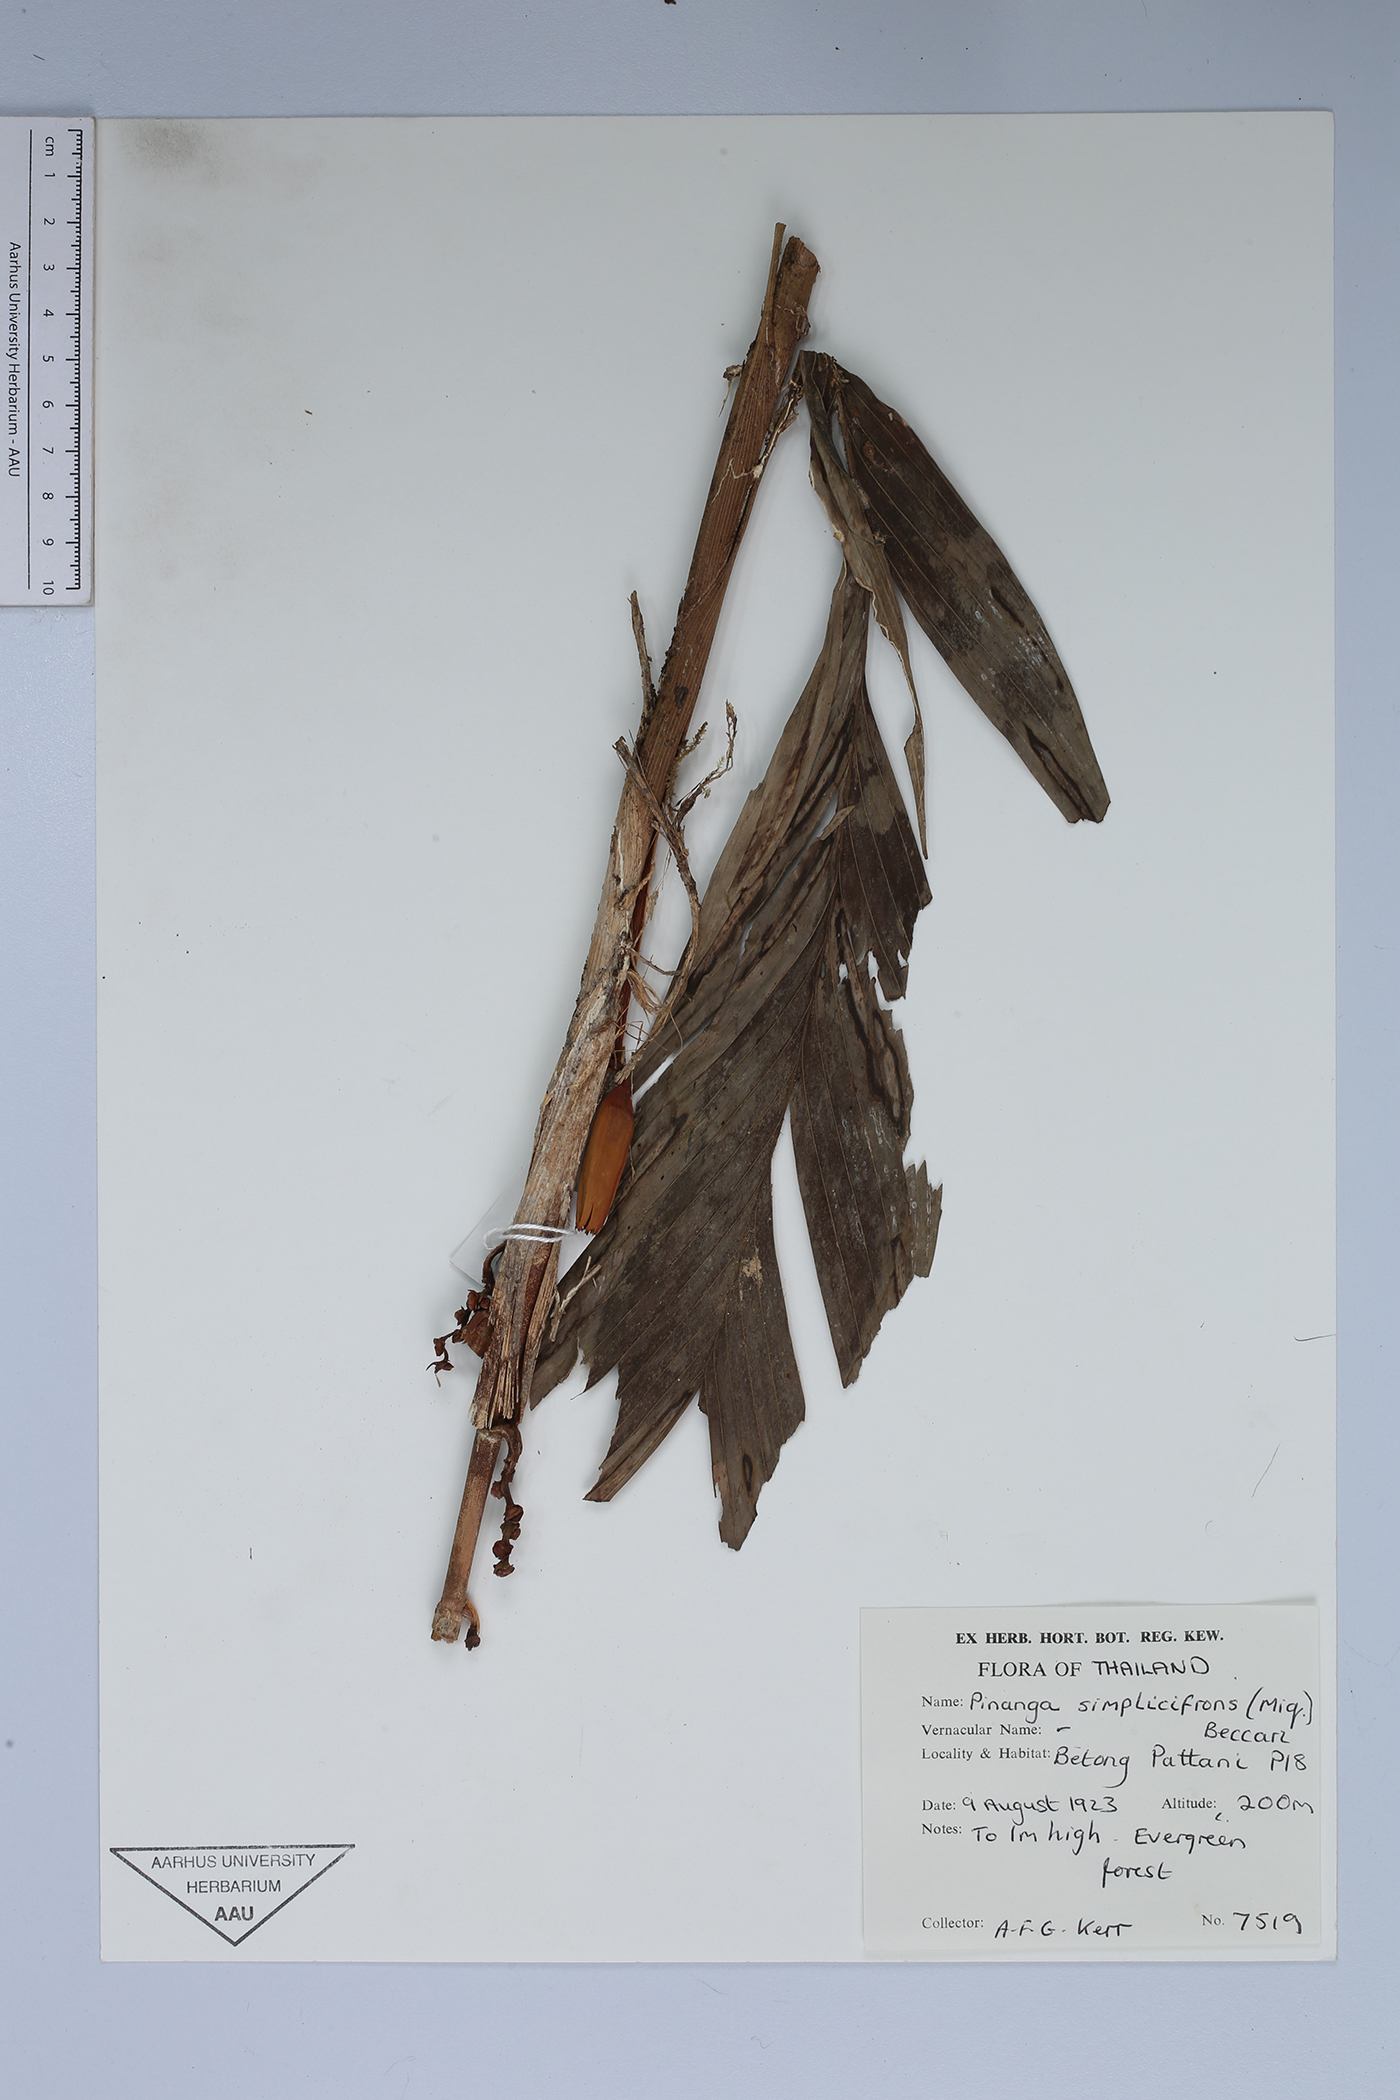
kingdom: Plantae
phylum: Tracheophyta
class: Liliopsida
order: Arecales
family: Arecaceae
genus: Pinanga
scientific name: Pinanga simplicifrons
